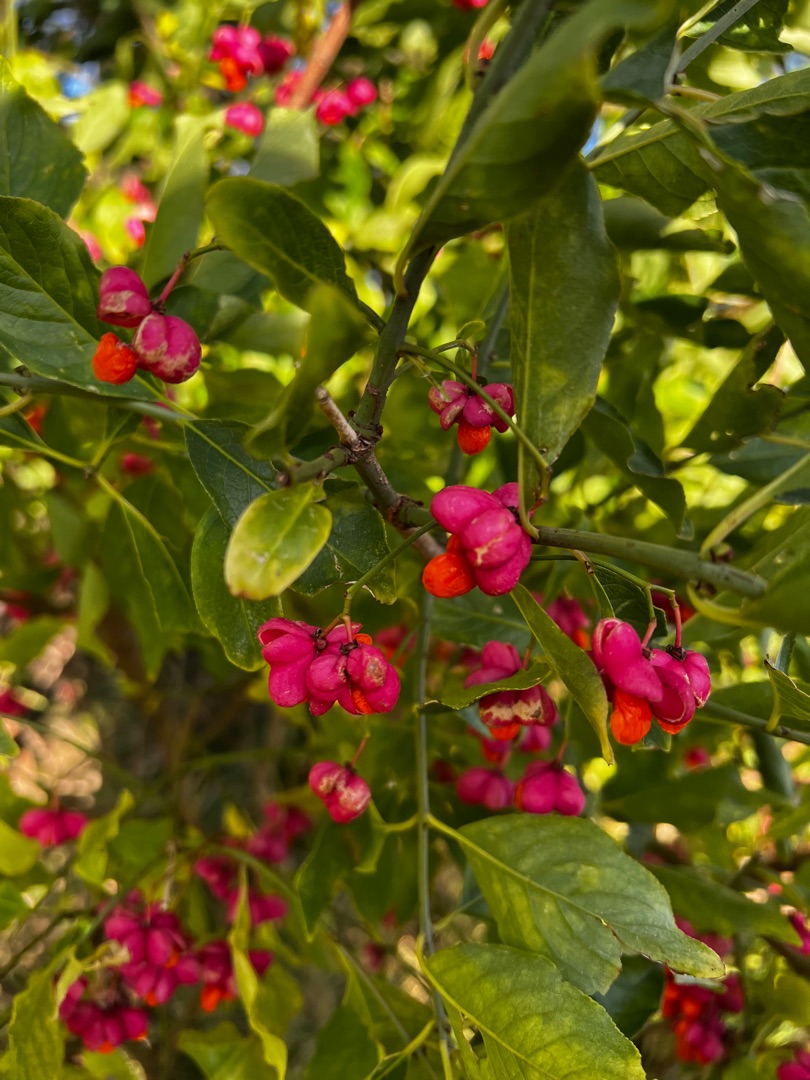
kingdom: Plantae
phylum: Tracheophyta
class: Magnoliopsida
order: Celastrales
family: Celastraceae
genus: Euonymus
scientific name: Euonymus europaeus
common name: Benved
